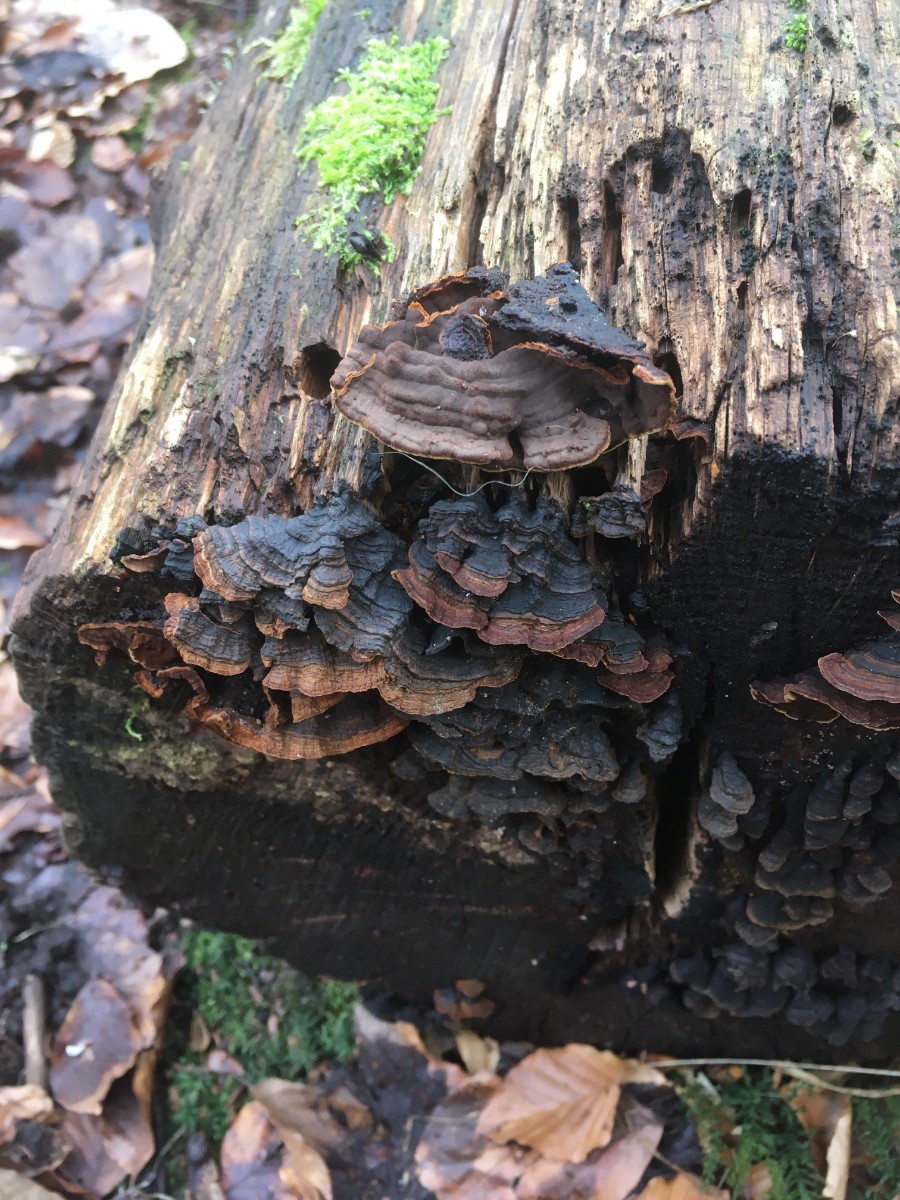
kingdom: Fungi
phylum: Basidiomycota
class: Agaricomycetes
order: Hymenochaetales
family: Hymenochaetaceae
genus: Hymenochaete
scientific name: Hymenochaete rubiginosa
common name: stiv ruslædersvamp
